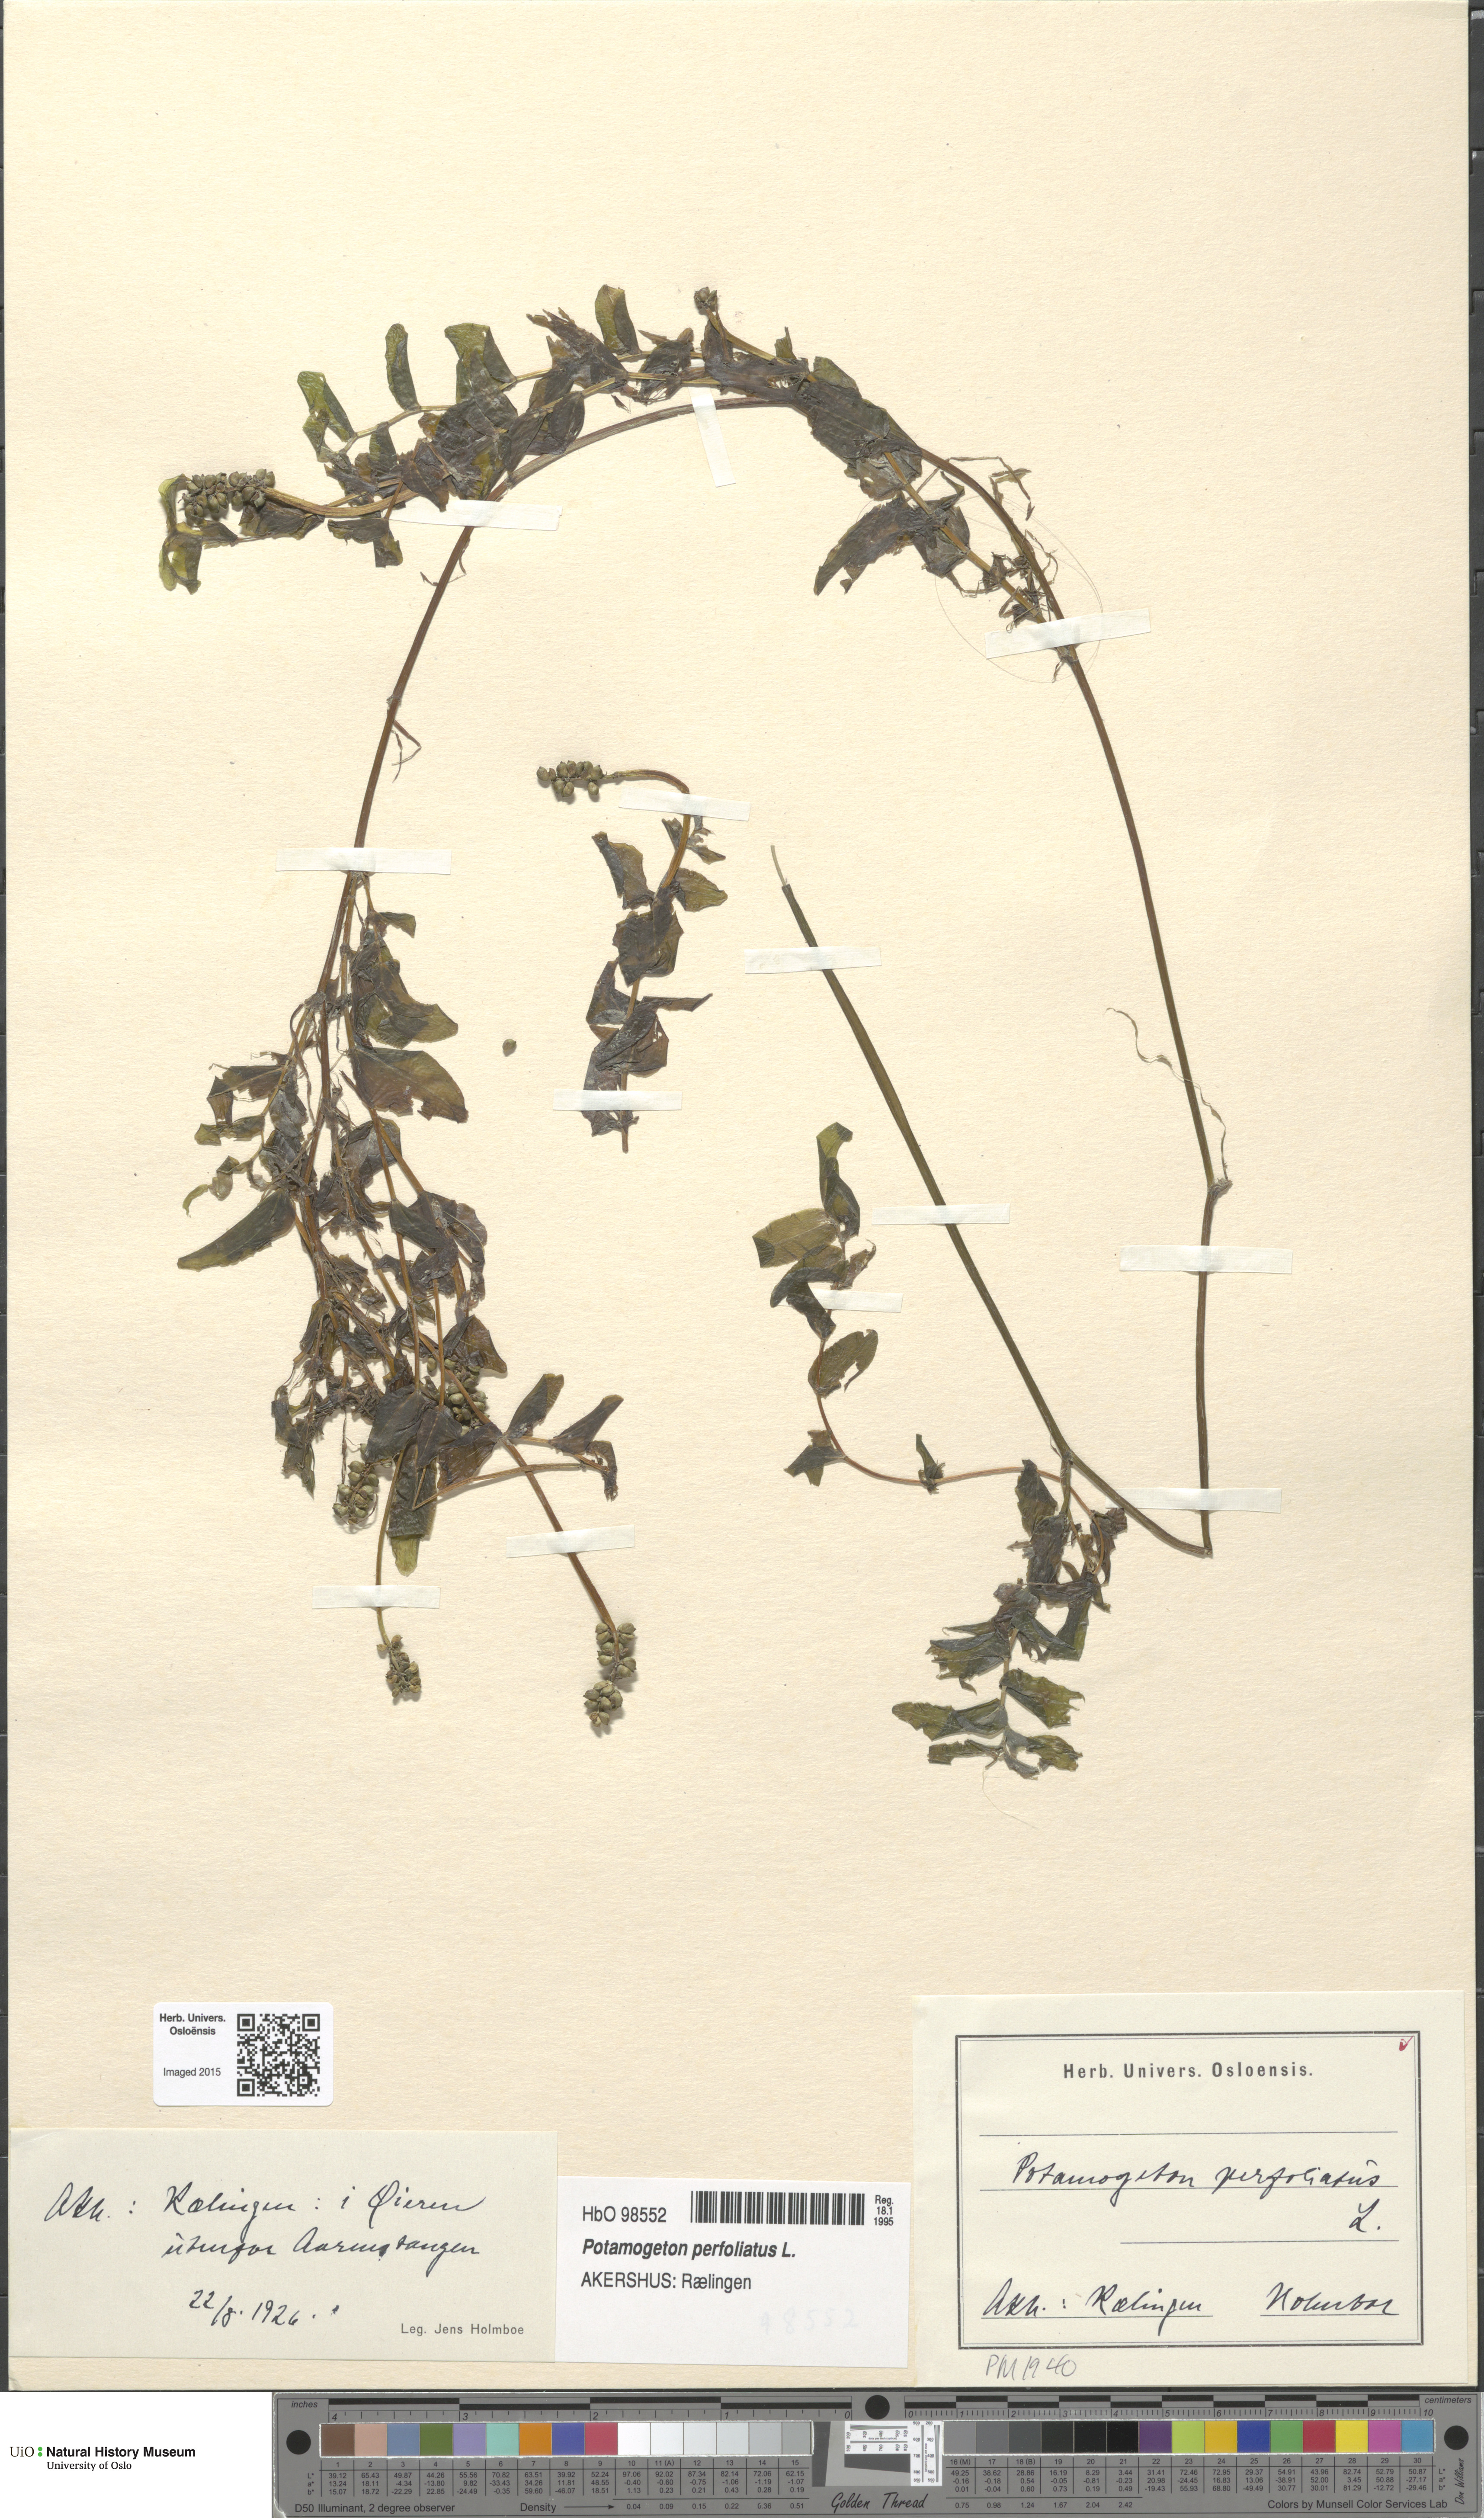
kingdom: Plantae
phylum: Tracheophyta
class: Liliopsida
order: Alismatales
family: Potamogetonaceae
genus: Potamogeton
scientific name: Potamogeton perfoliatus
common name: Perfoliate pondweed
